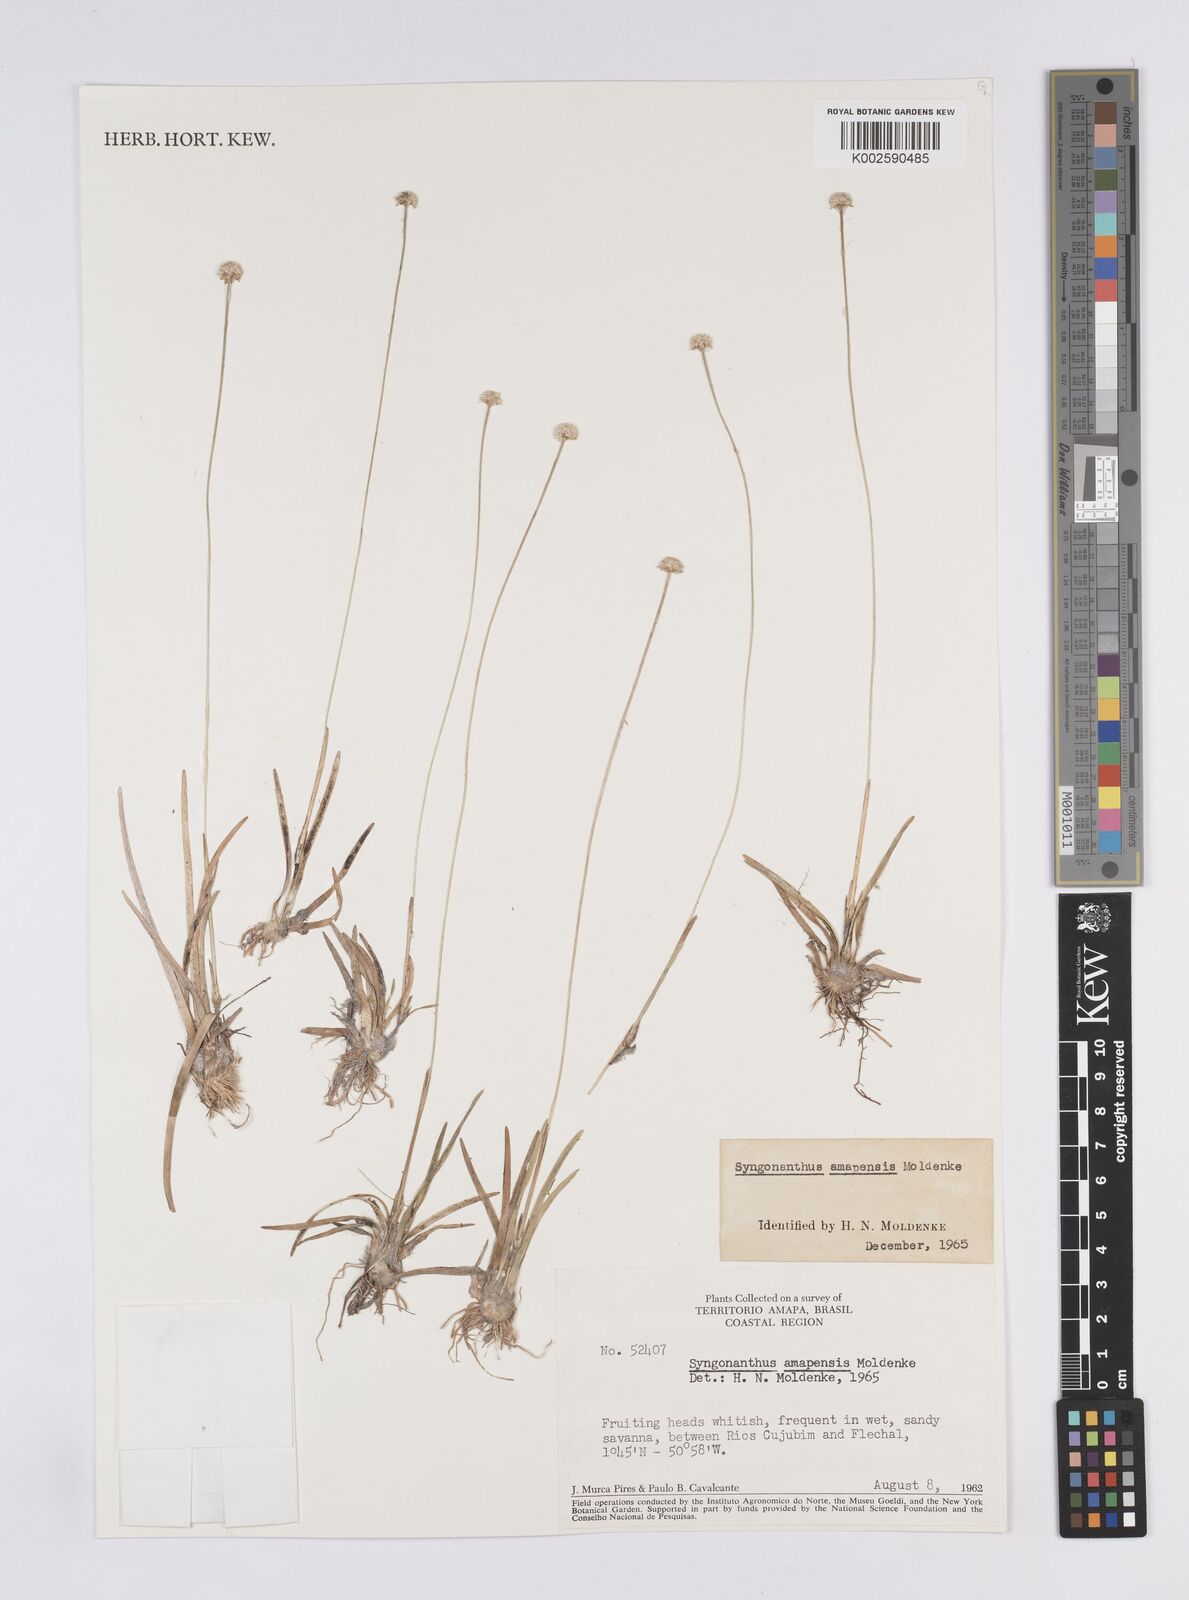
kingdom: Plantae
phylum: Tracheophyta
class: Liliopsida
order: Poales
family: Eriocaulaceae
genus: Syngonanthus
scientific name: Syngonanthus amapensis
